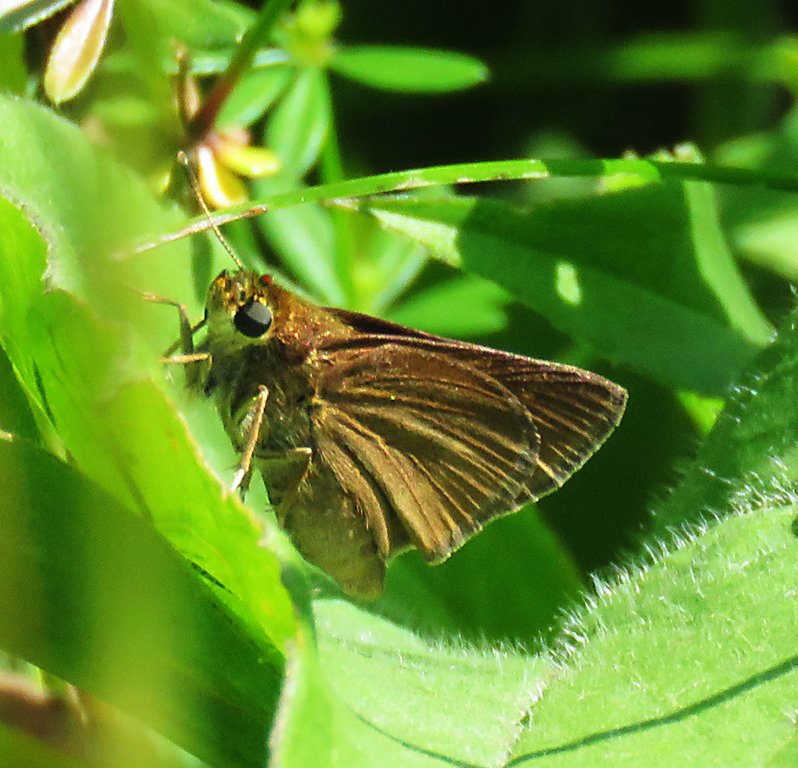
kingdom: Animalia
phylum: Arthropoda
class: Insecta
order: Lepidoptera
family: Hesperiidae
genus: Euphyes
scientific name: Euphyes vestris
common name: Dun Skipper
